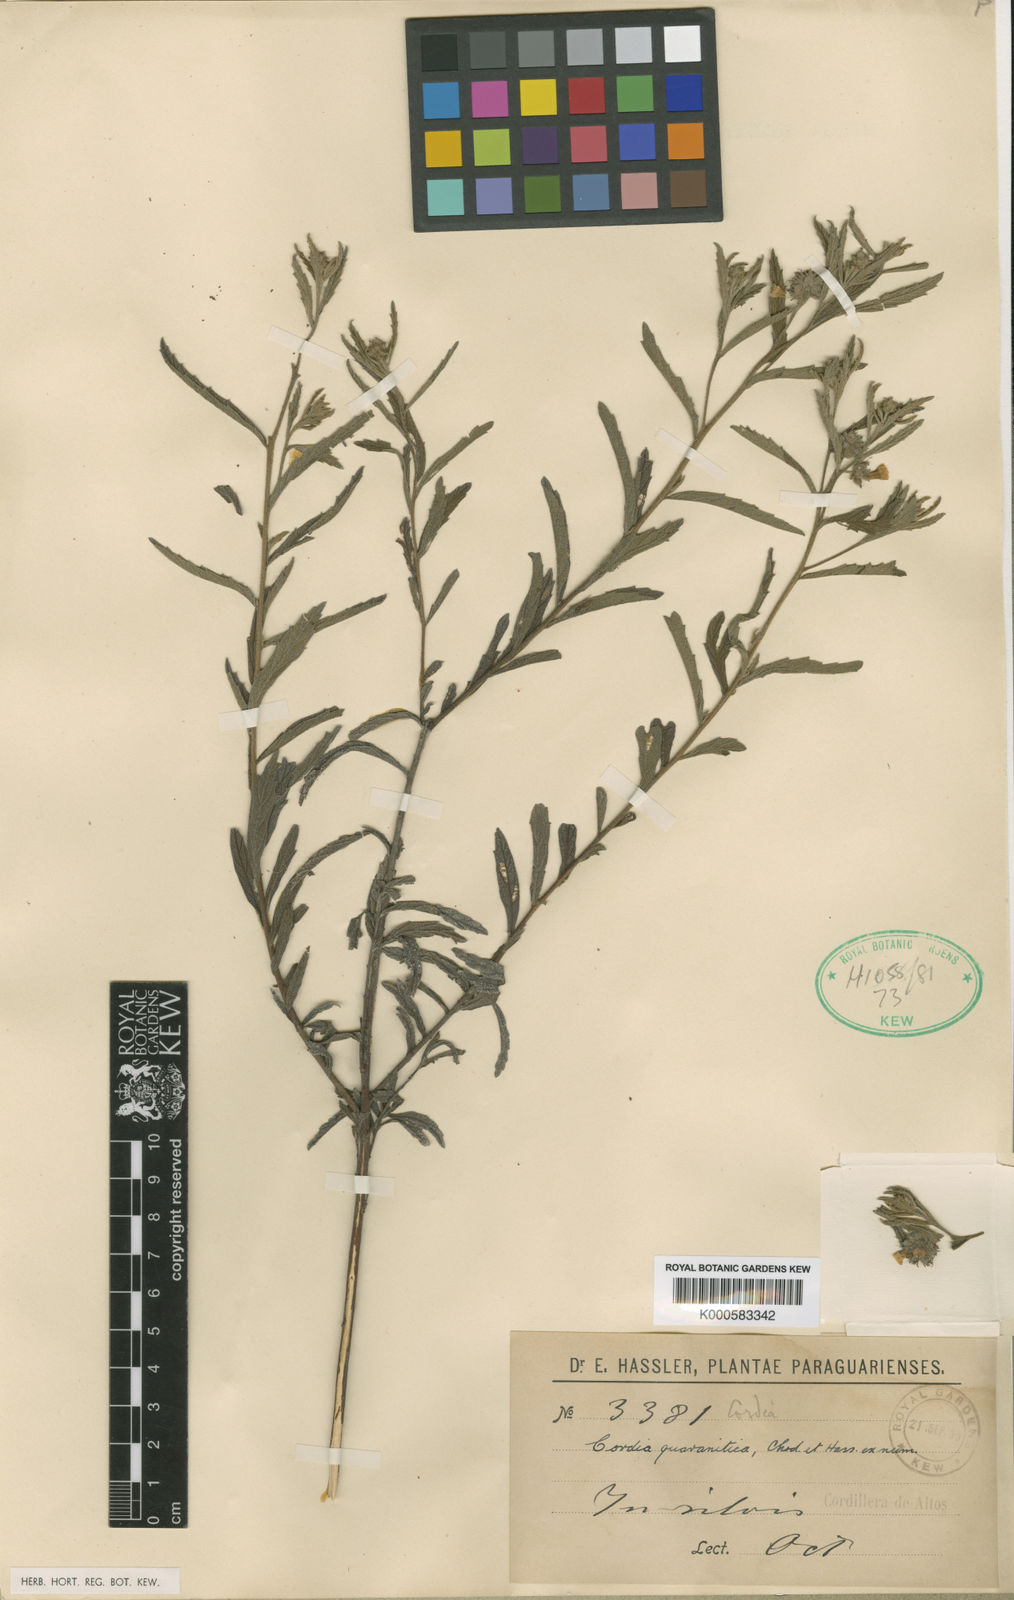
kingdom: Plantae
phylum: Tracheophyta
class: Magnoliopsida
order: Boraginales
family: Cordiaceae
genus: Varronia
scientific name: Varronia guaranitica
